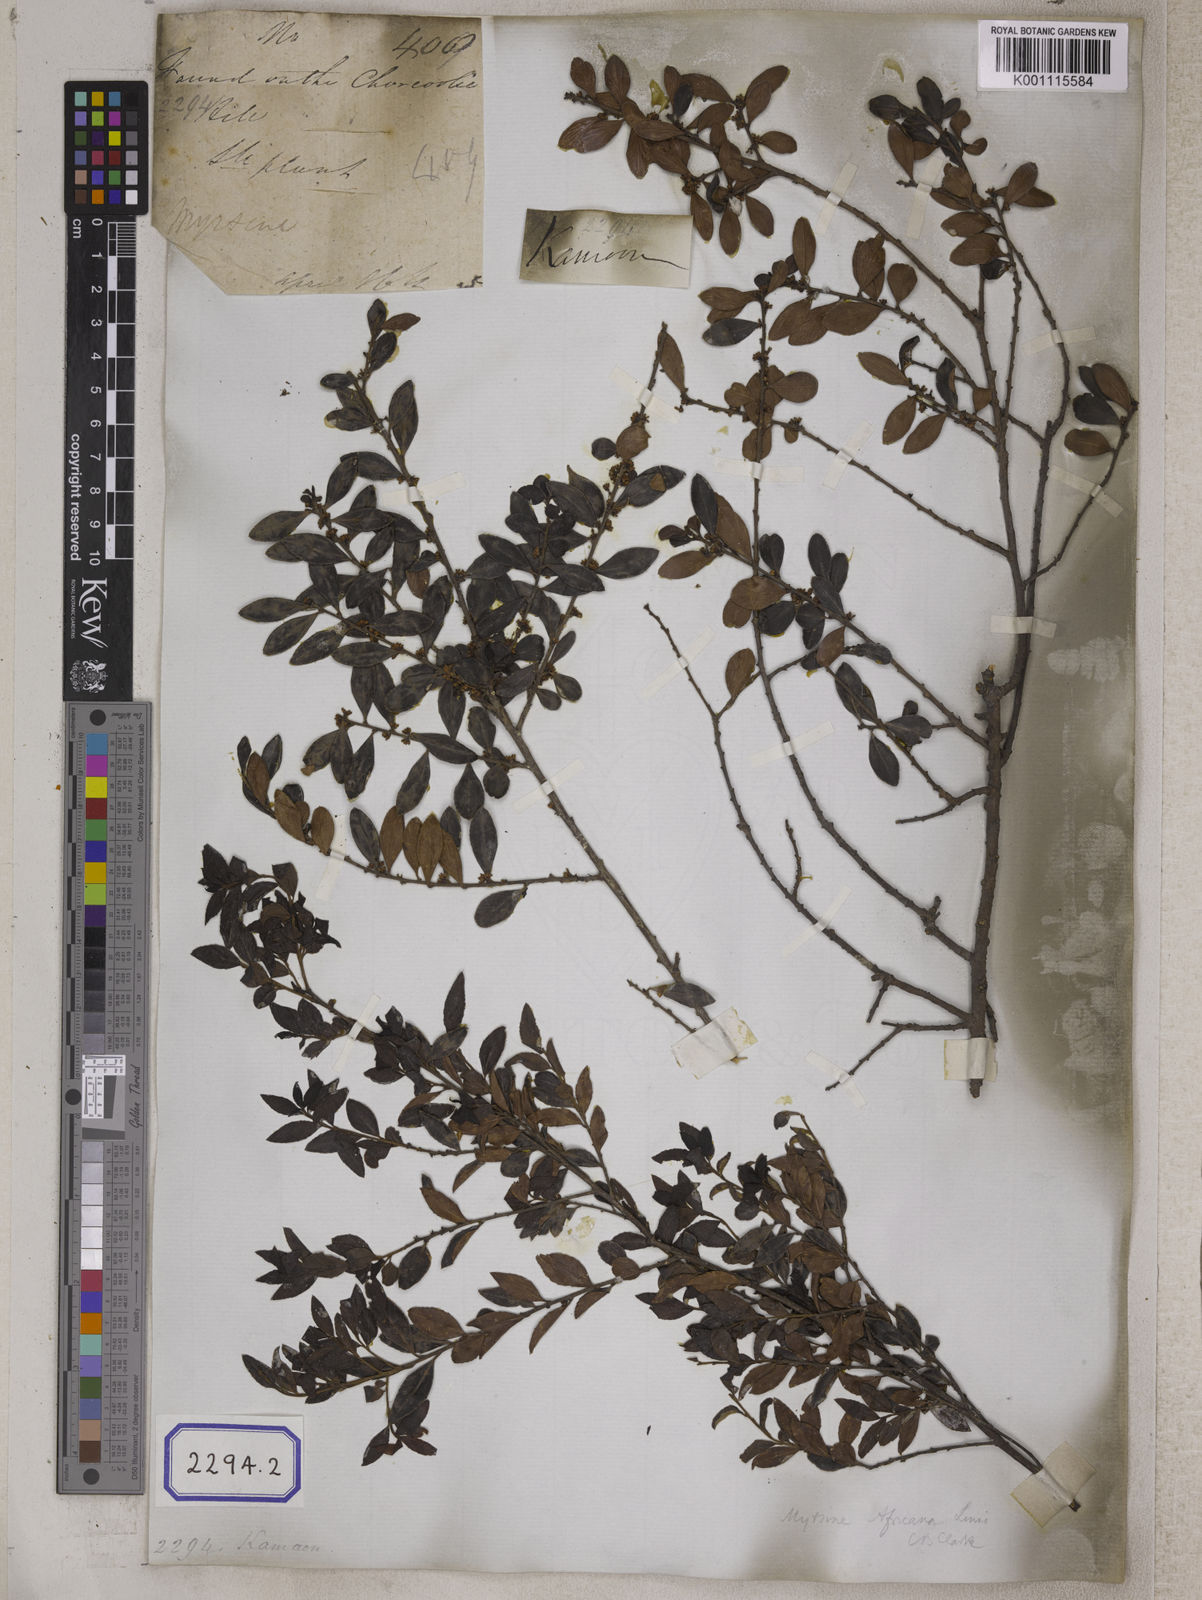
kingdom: Plantae
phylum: Tracheophyta
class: Magnoliopsida
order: Ericales
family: Primulaceae
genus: Myrsine
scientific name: Myrsine africana
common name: African-boxwood
